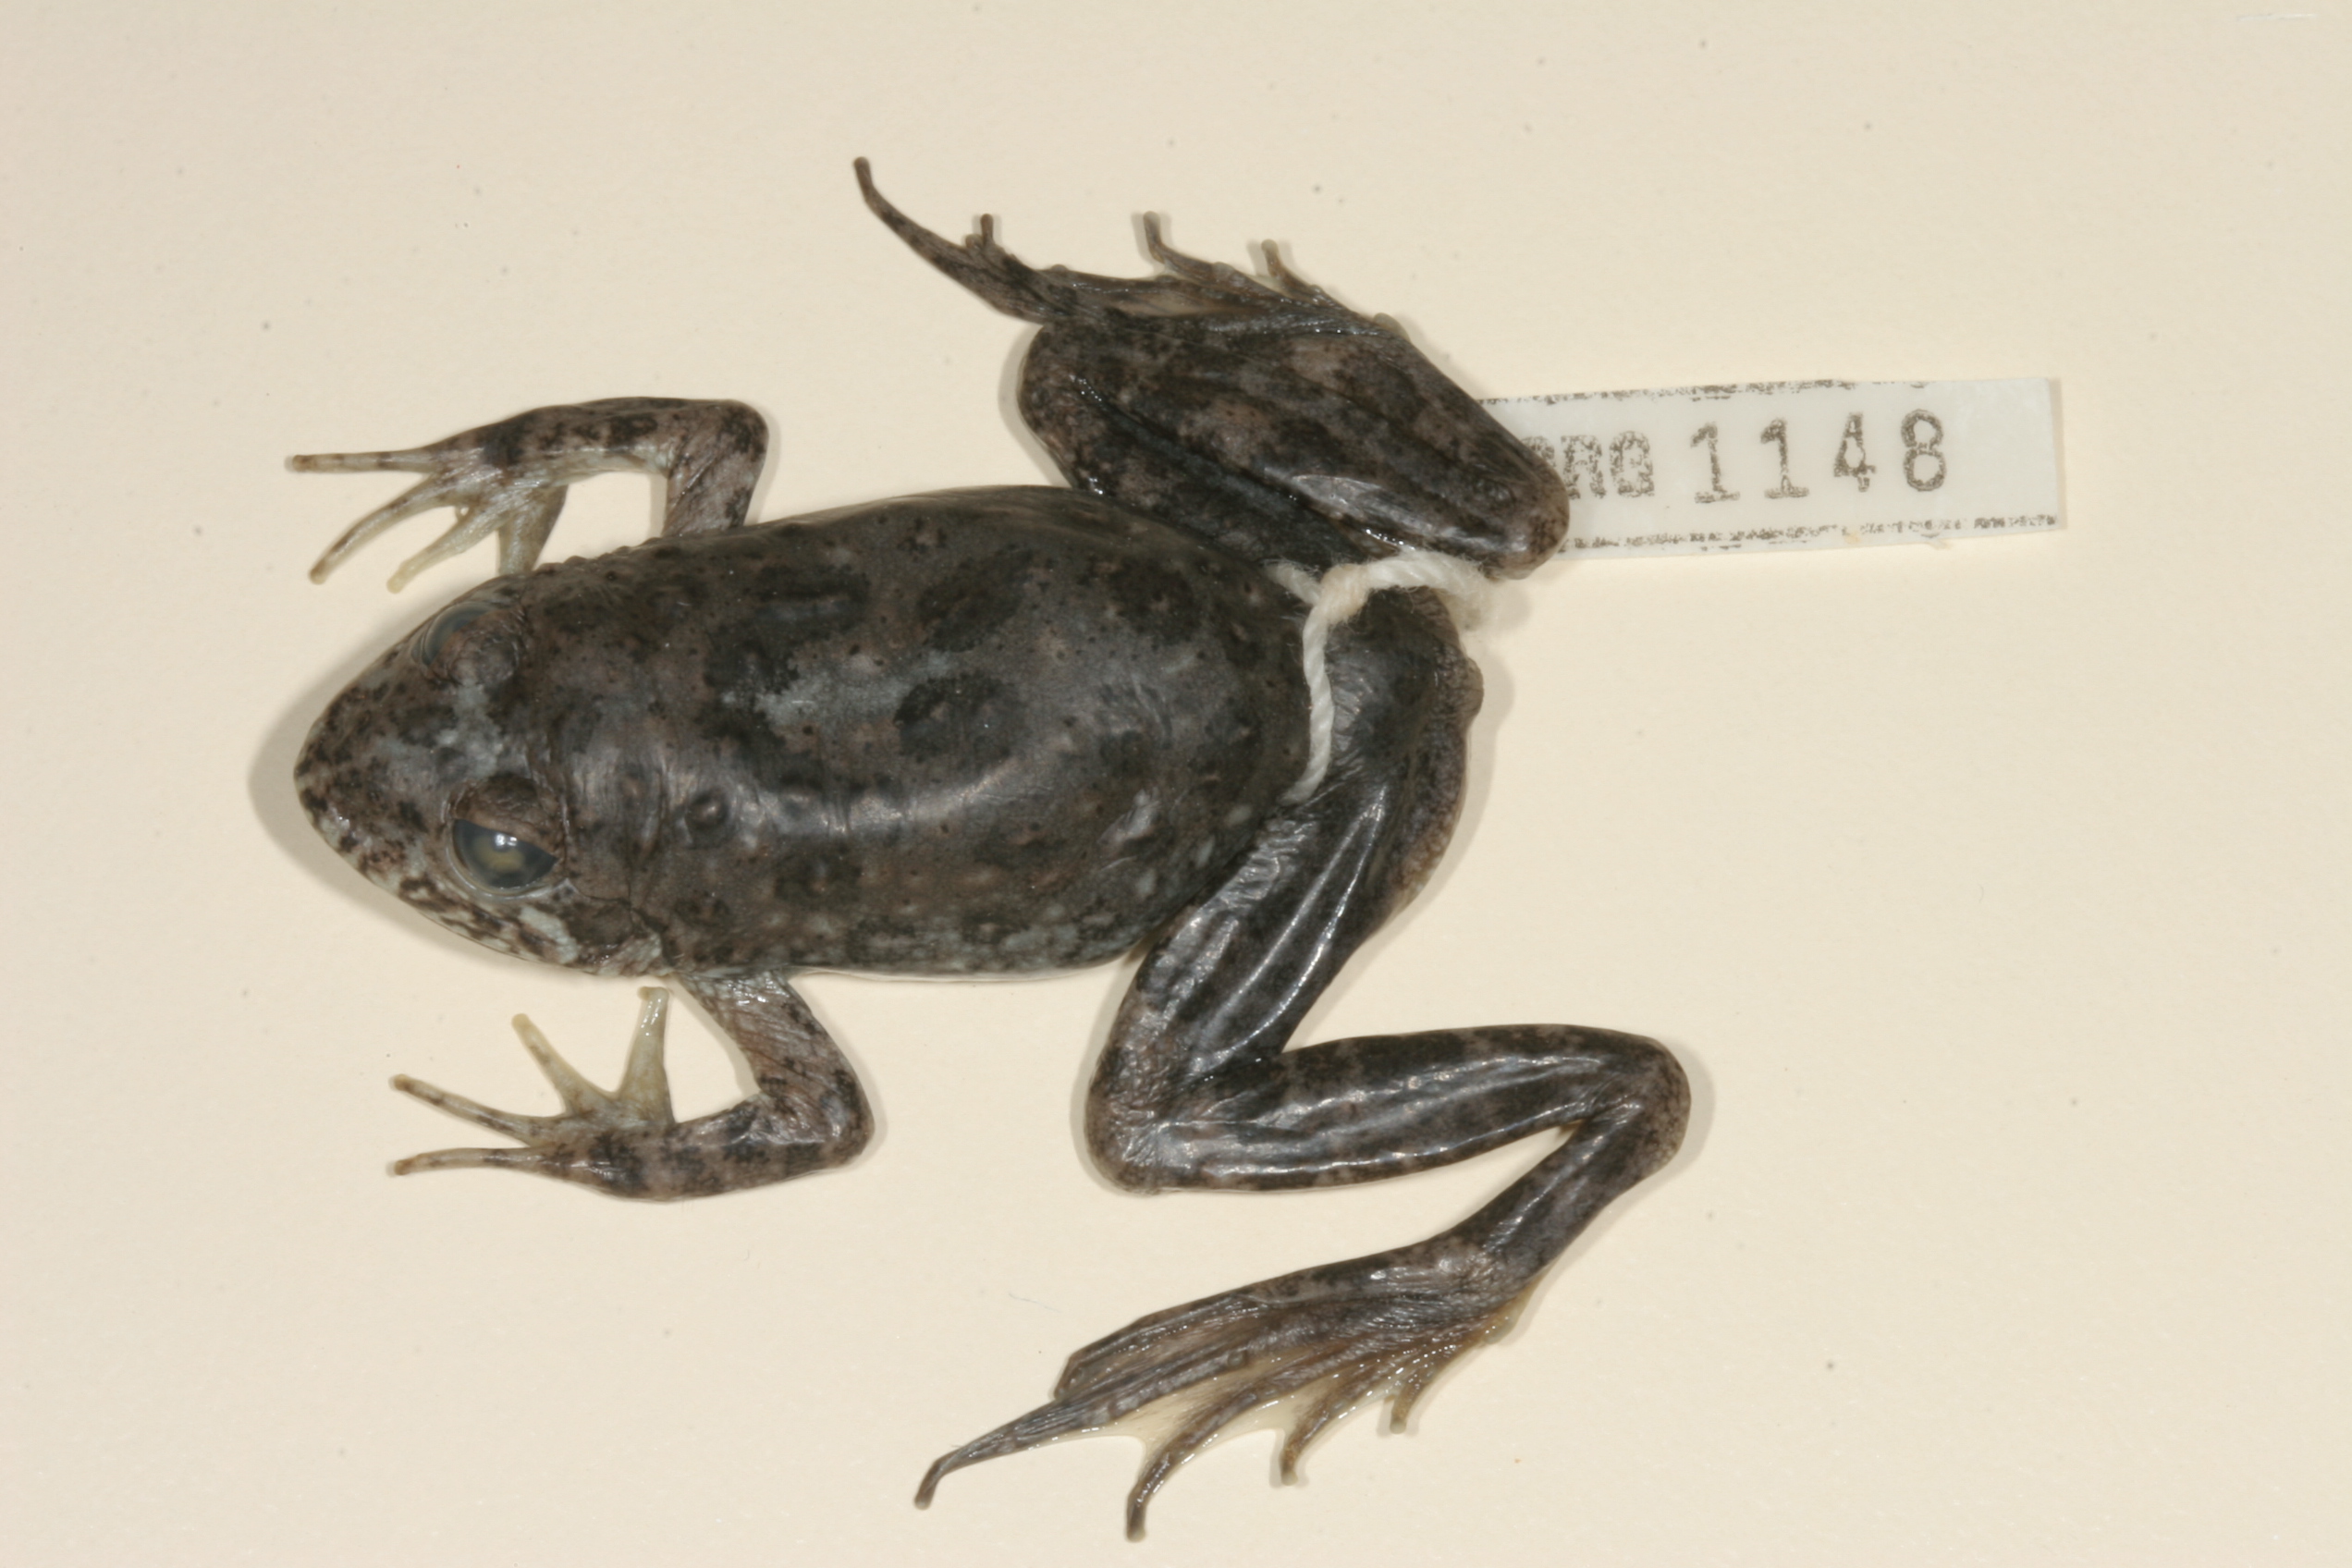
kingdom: Animalia
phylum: Chordata
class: Amphibia
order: Anura
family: Pyxicephalidae
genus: Amietia
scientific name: Amietia vertebralis
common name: Drakensberg stream frog
